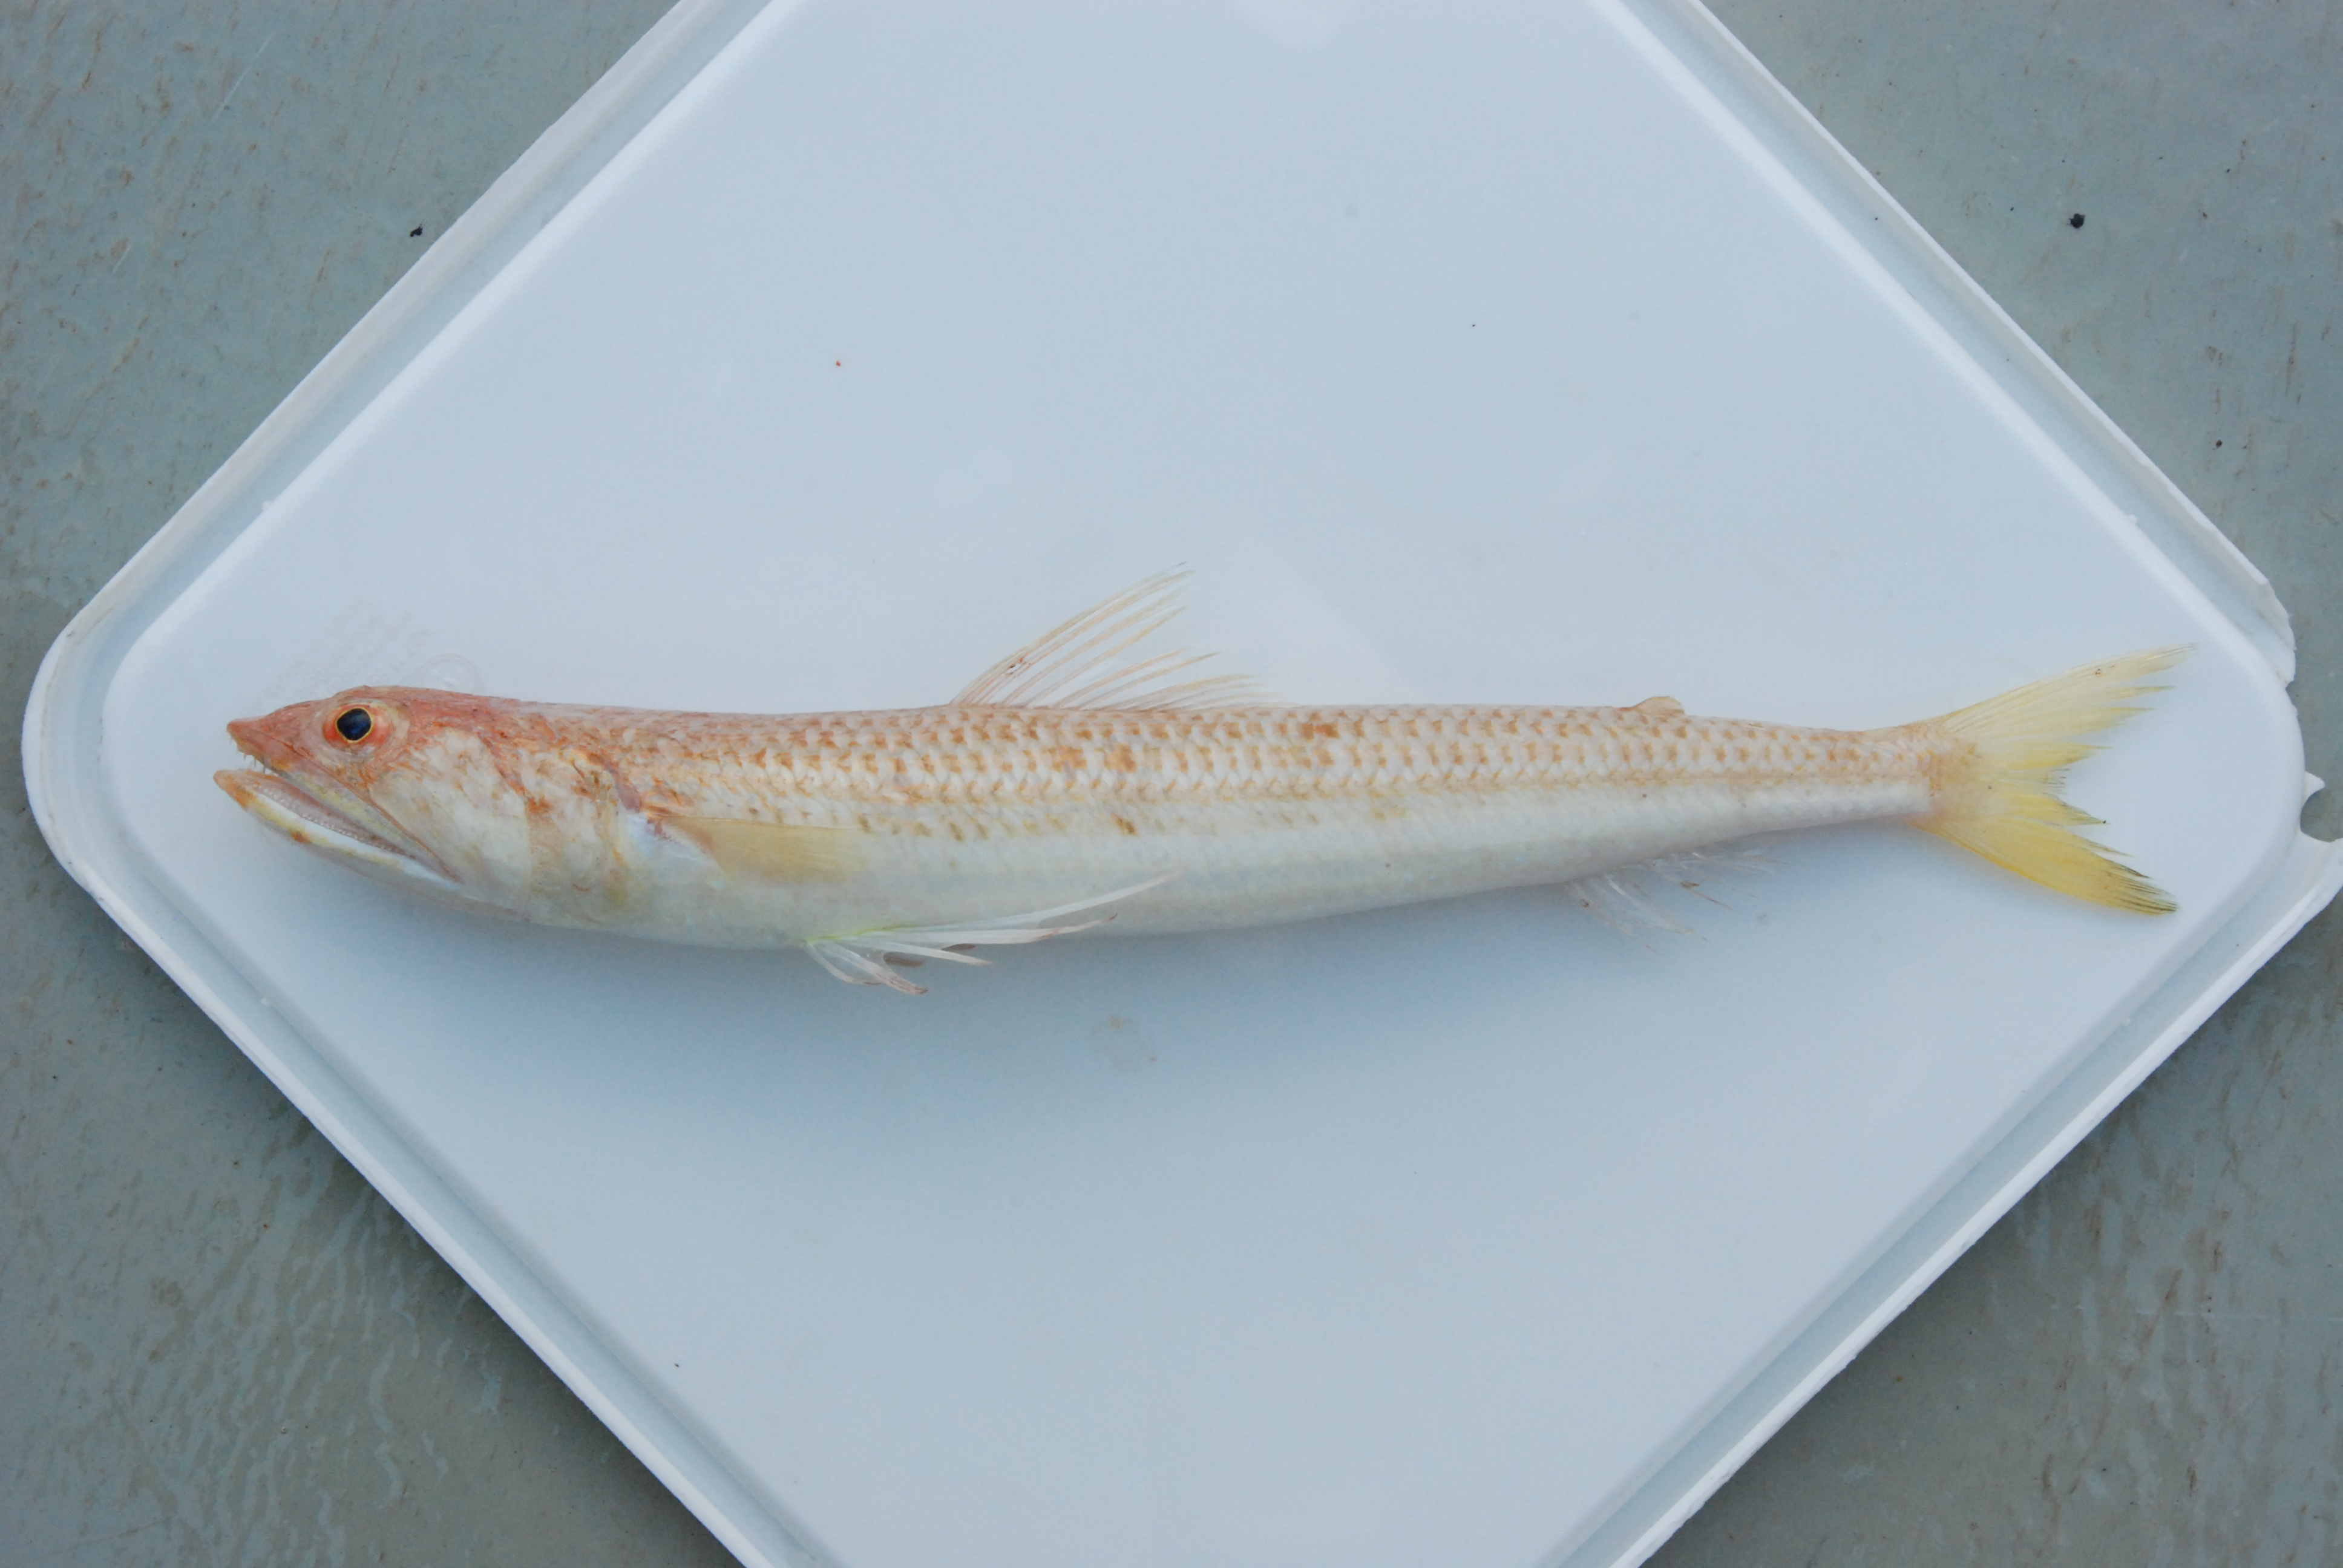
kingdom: Animalia
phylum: Chordata
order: Aulopiformes
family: Synodontidae
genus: Synodus
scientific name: Synodus indicus
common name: Indian lizardfish
